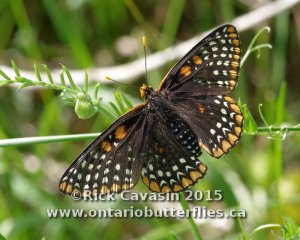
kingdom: Animalia
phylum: Arthropoda
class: Insecta
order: Lepidoptera
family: Nymphalidae
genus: Euphydryas
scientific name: Euphydryas phaeton
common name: Baltimore Checkerspot
